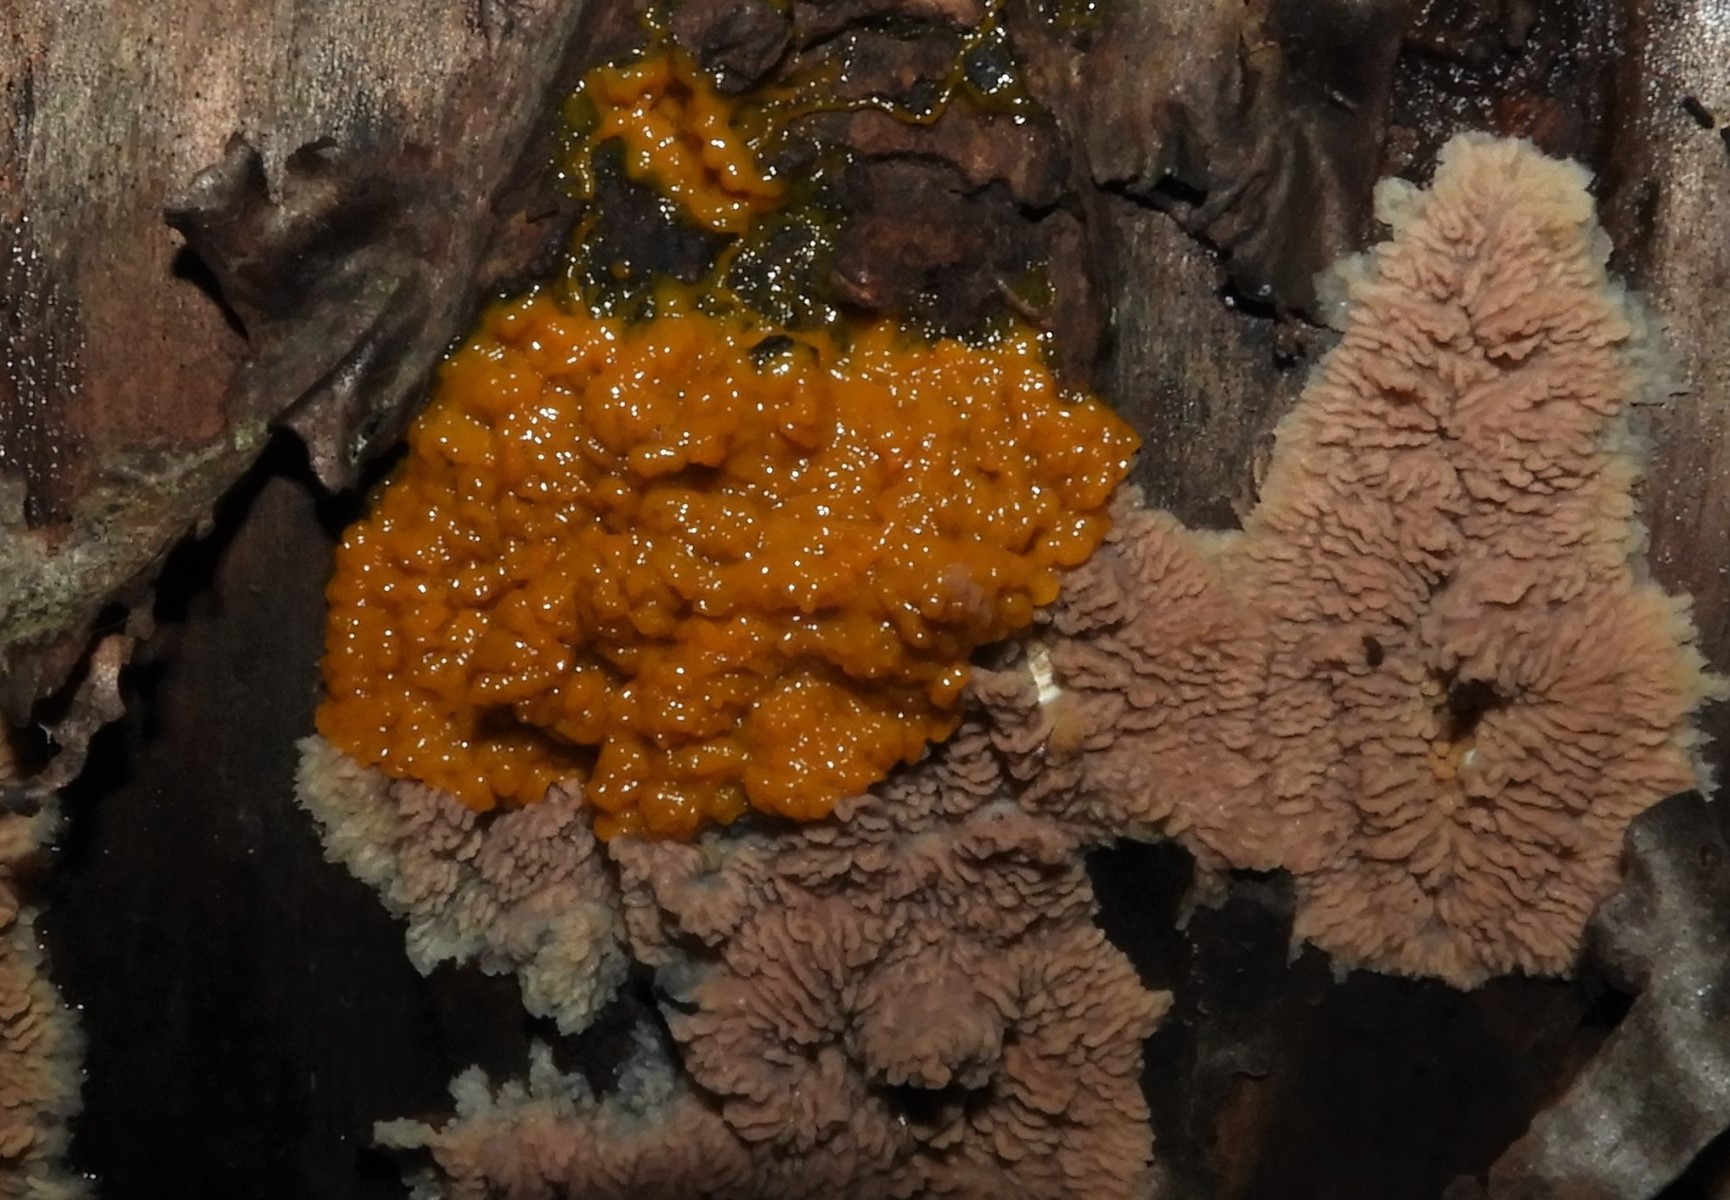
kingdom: Protozoa
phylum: Mycetozoa
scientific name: Mycetozoa
